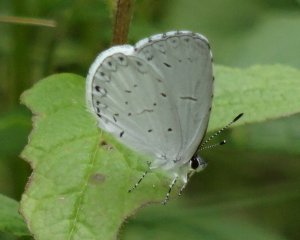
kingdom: Animalia
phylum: Arthropoda
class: Insecta
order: Lepidoptera
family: Lycaenidae
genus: Cyaniris
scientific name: Cyaniris neglecta
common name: Summer Azure
